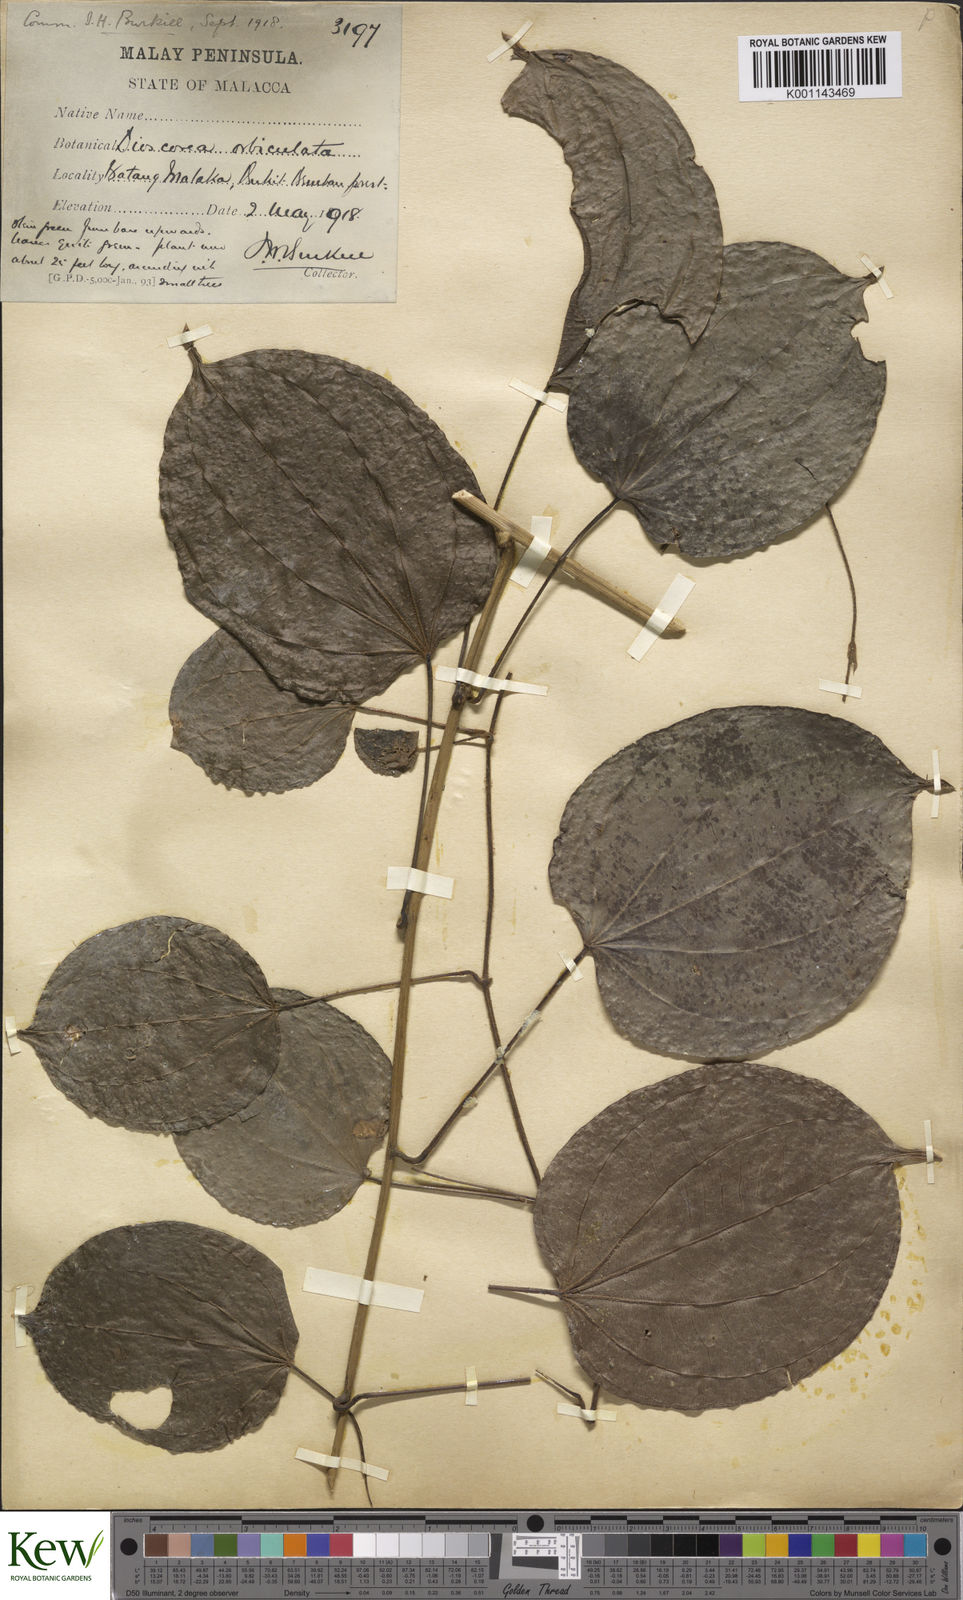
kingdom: Plantae
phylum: Tracheophyta
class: Liliopsida
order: Dioscoreales
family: Dioscoreaceae
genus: Dioscorea
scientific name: Dioscorea orbiculata
